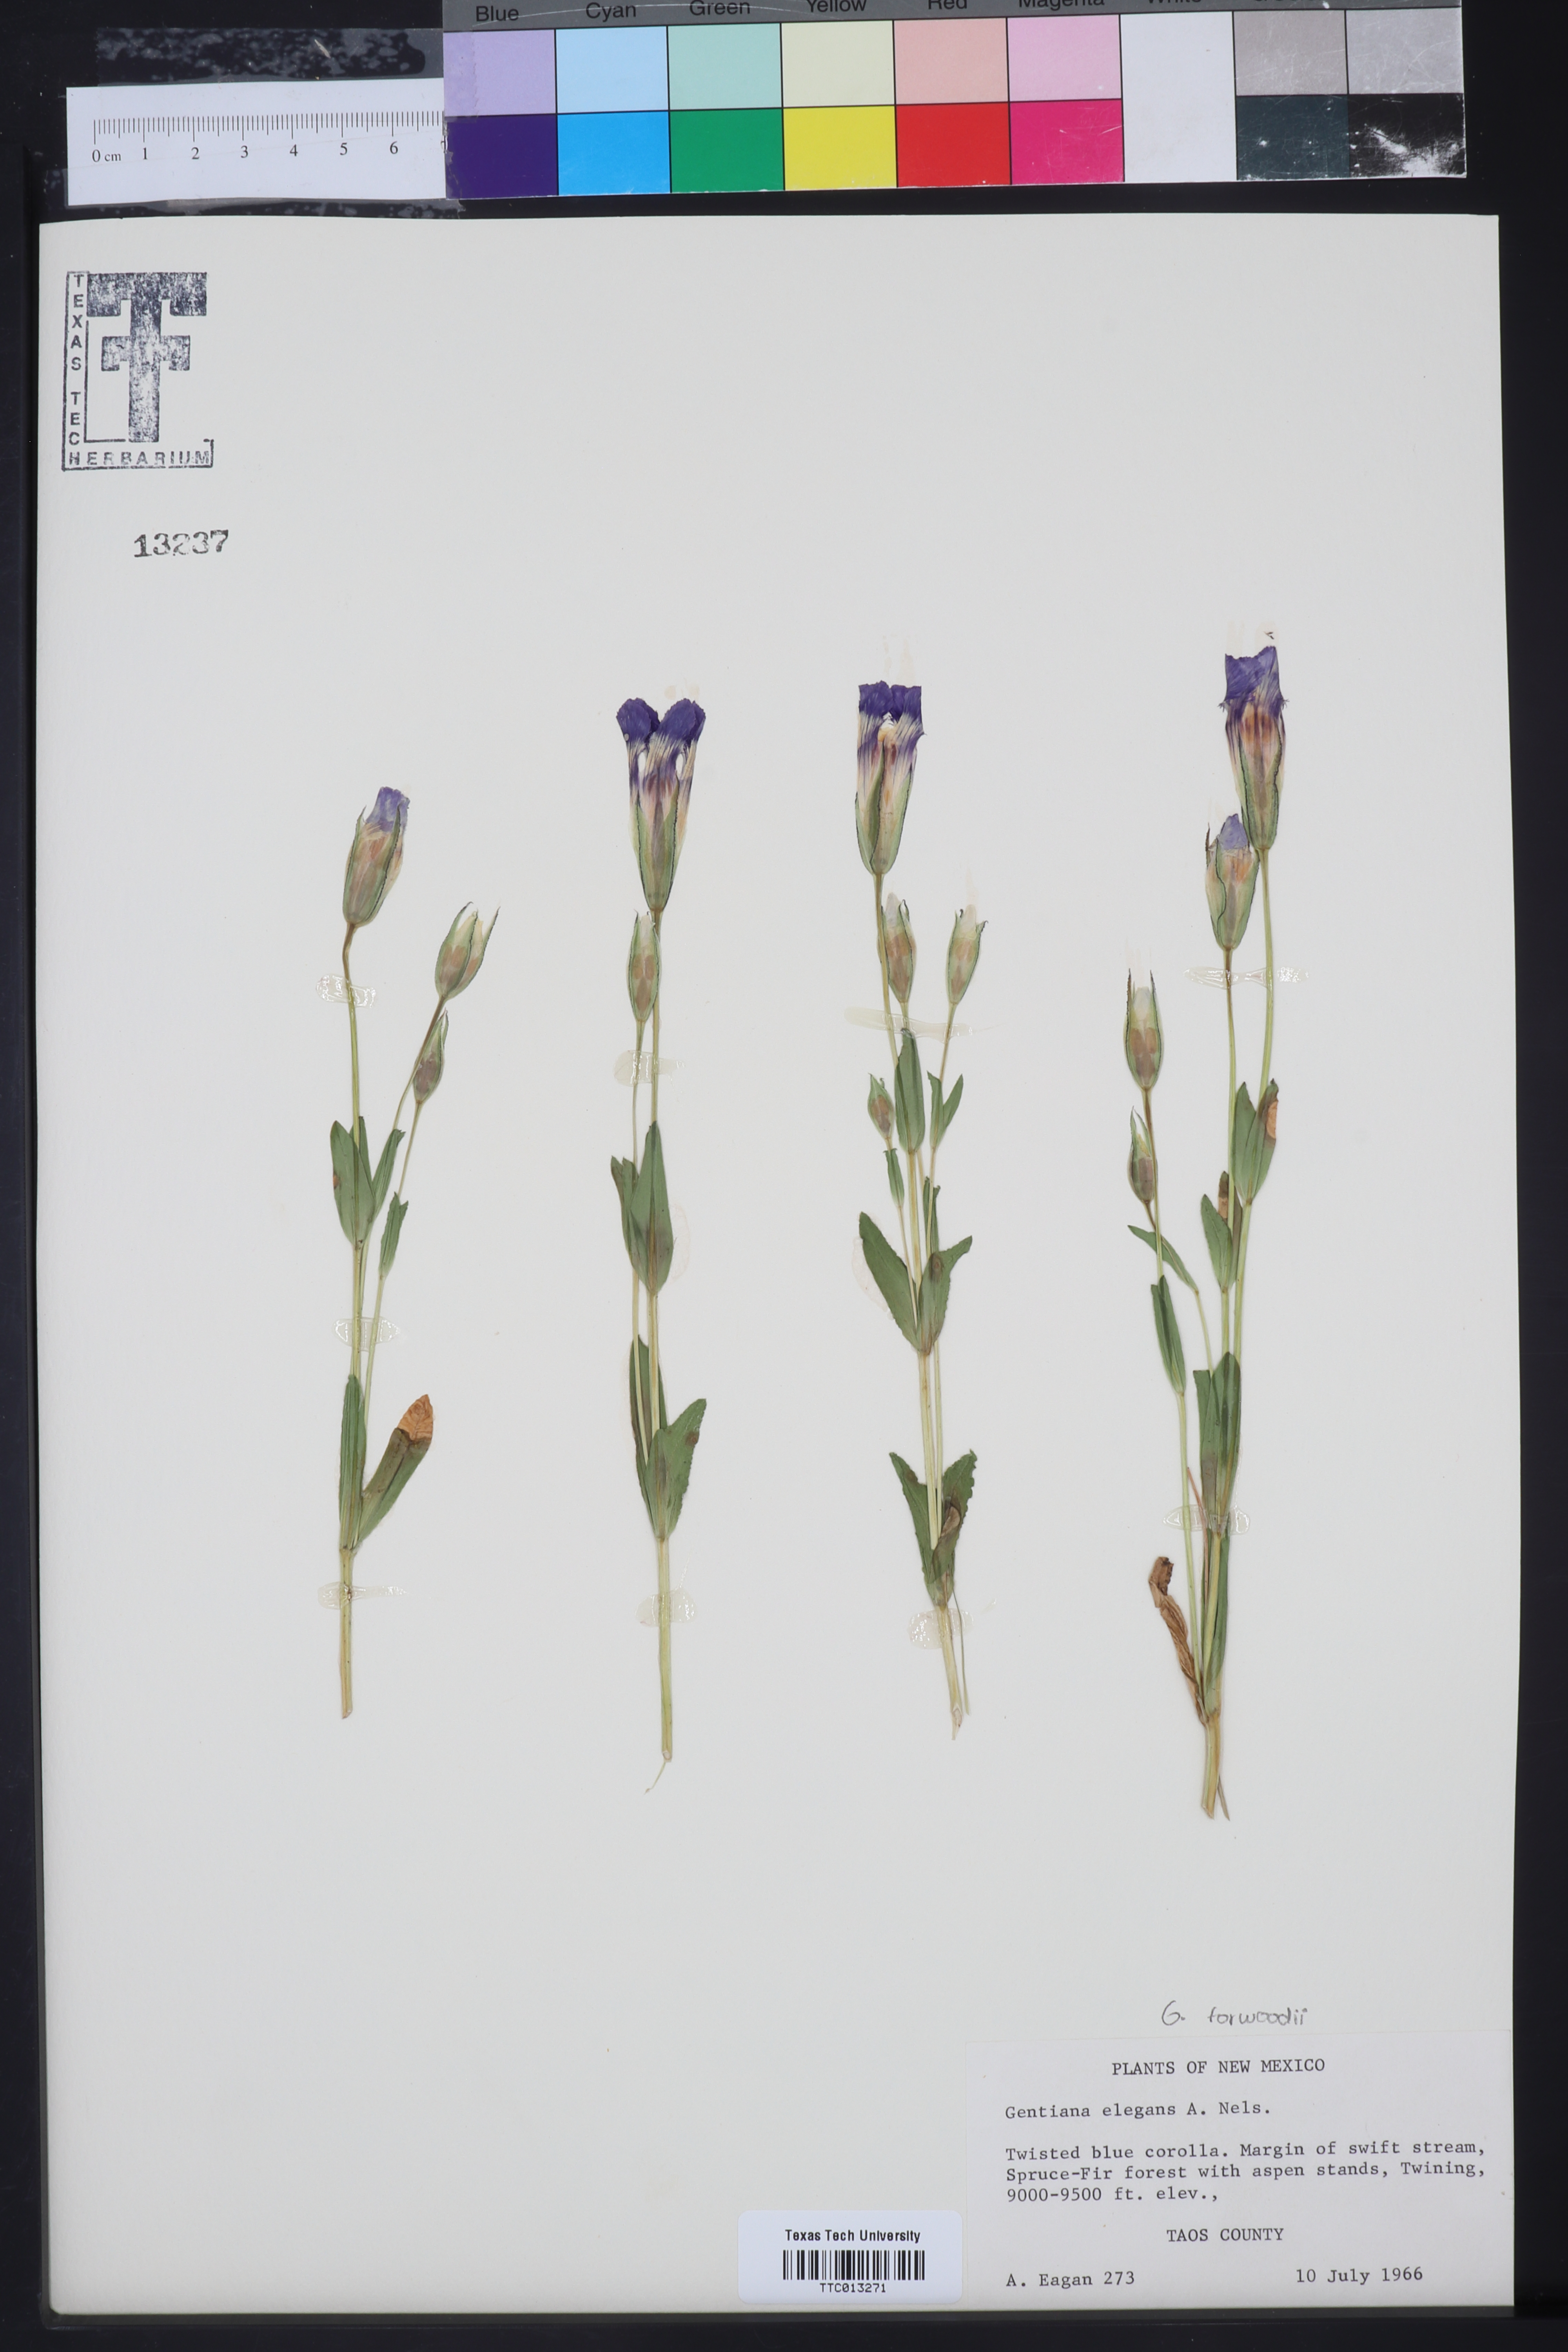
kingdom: Plantae
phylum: Tracheophyta
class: Magnoliopsida
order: Gentianales
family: Gentianaceae
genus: Gentianopsis
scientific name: Gentianopsis thermalis
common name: Rocky mountain fringed-gentian
